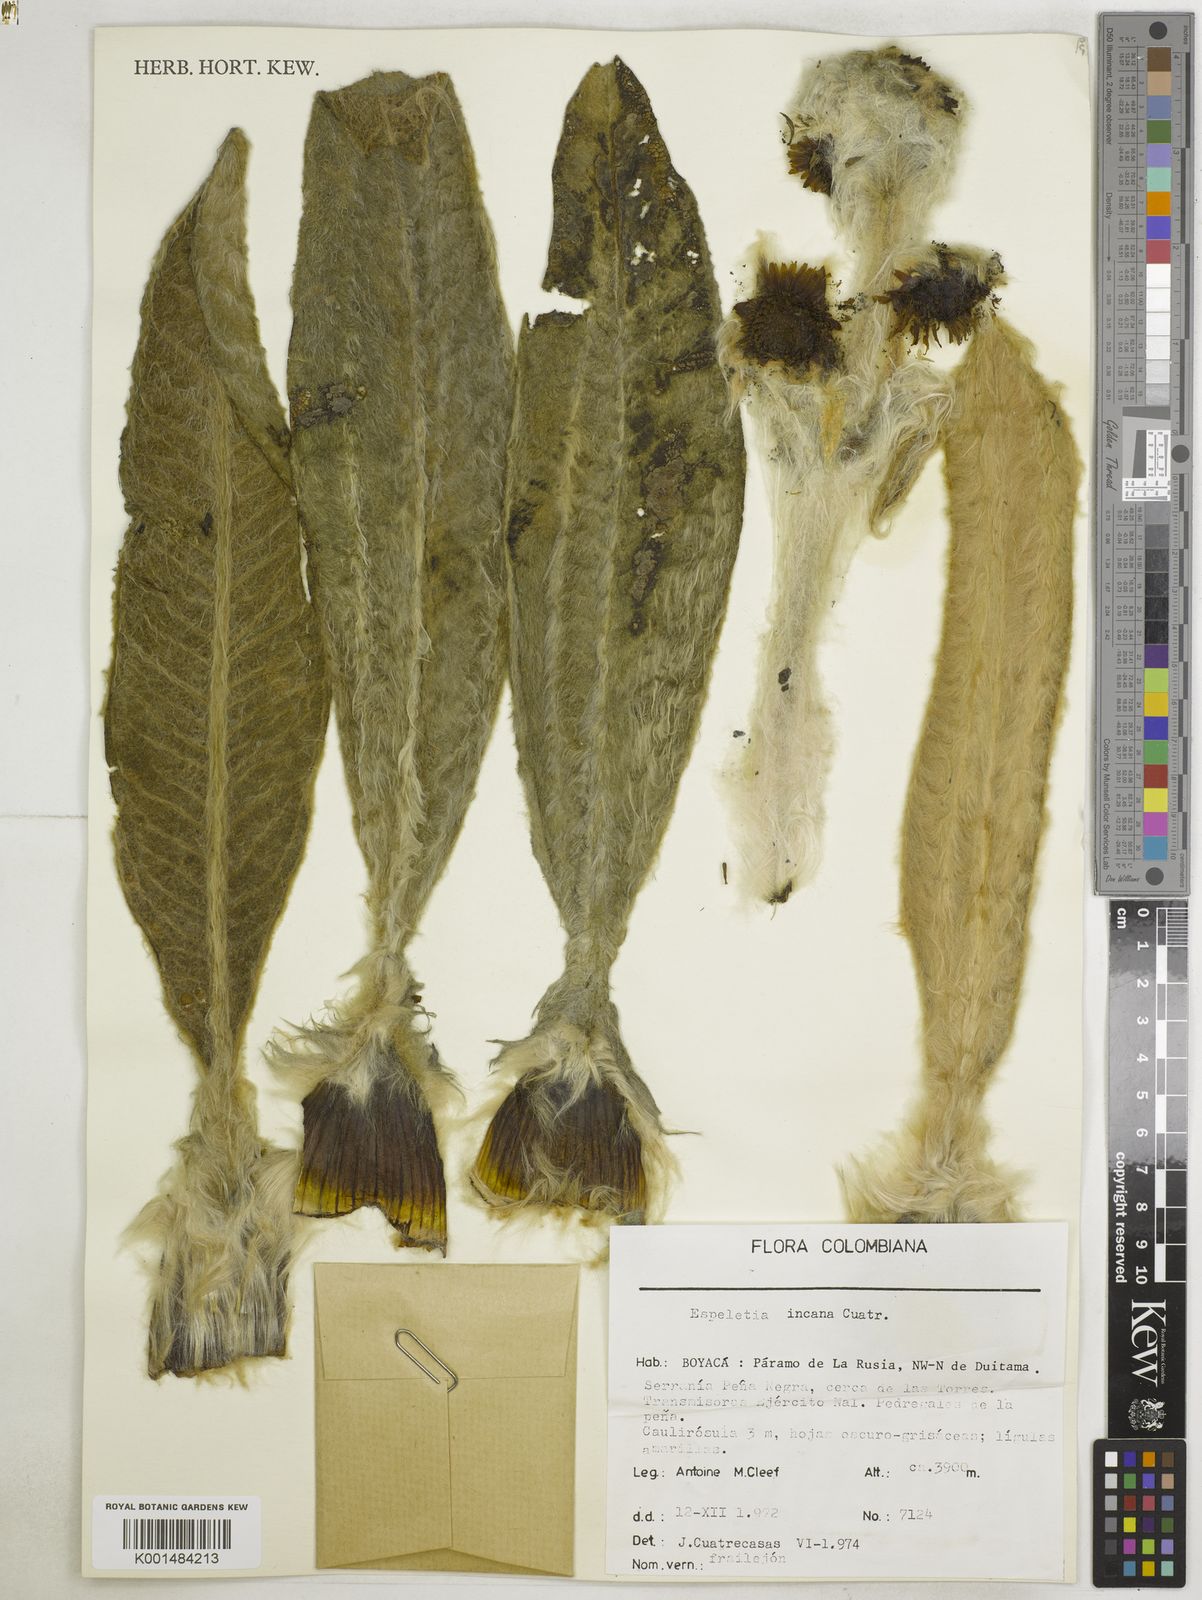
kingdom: Plantae
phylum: Tracheophyta
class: Magnoliopsida
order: Asterales
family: Asteraceae
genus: Espeletia
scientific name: Espeletia incana
